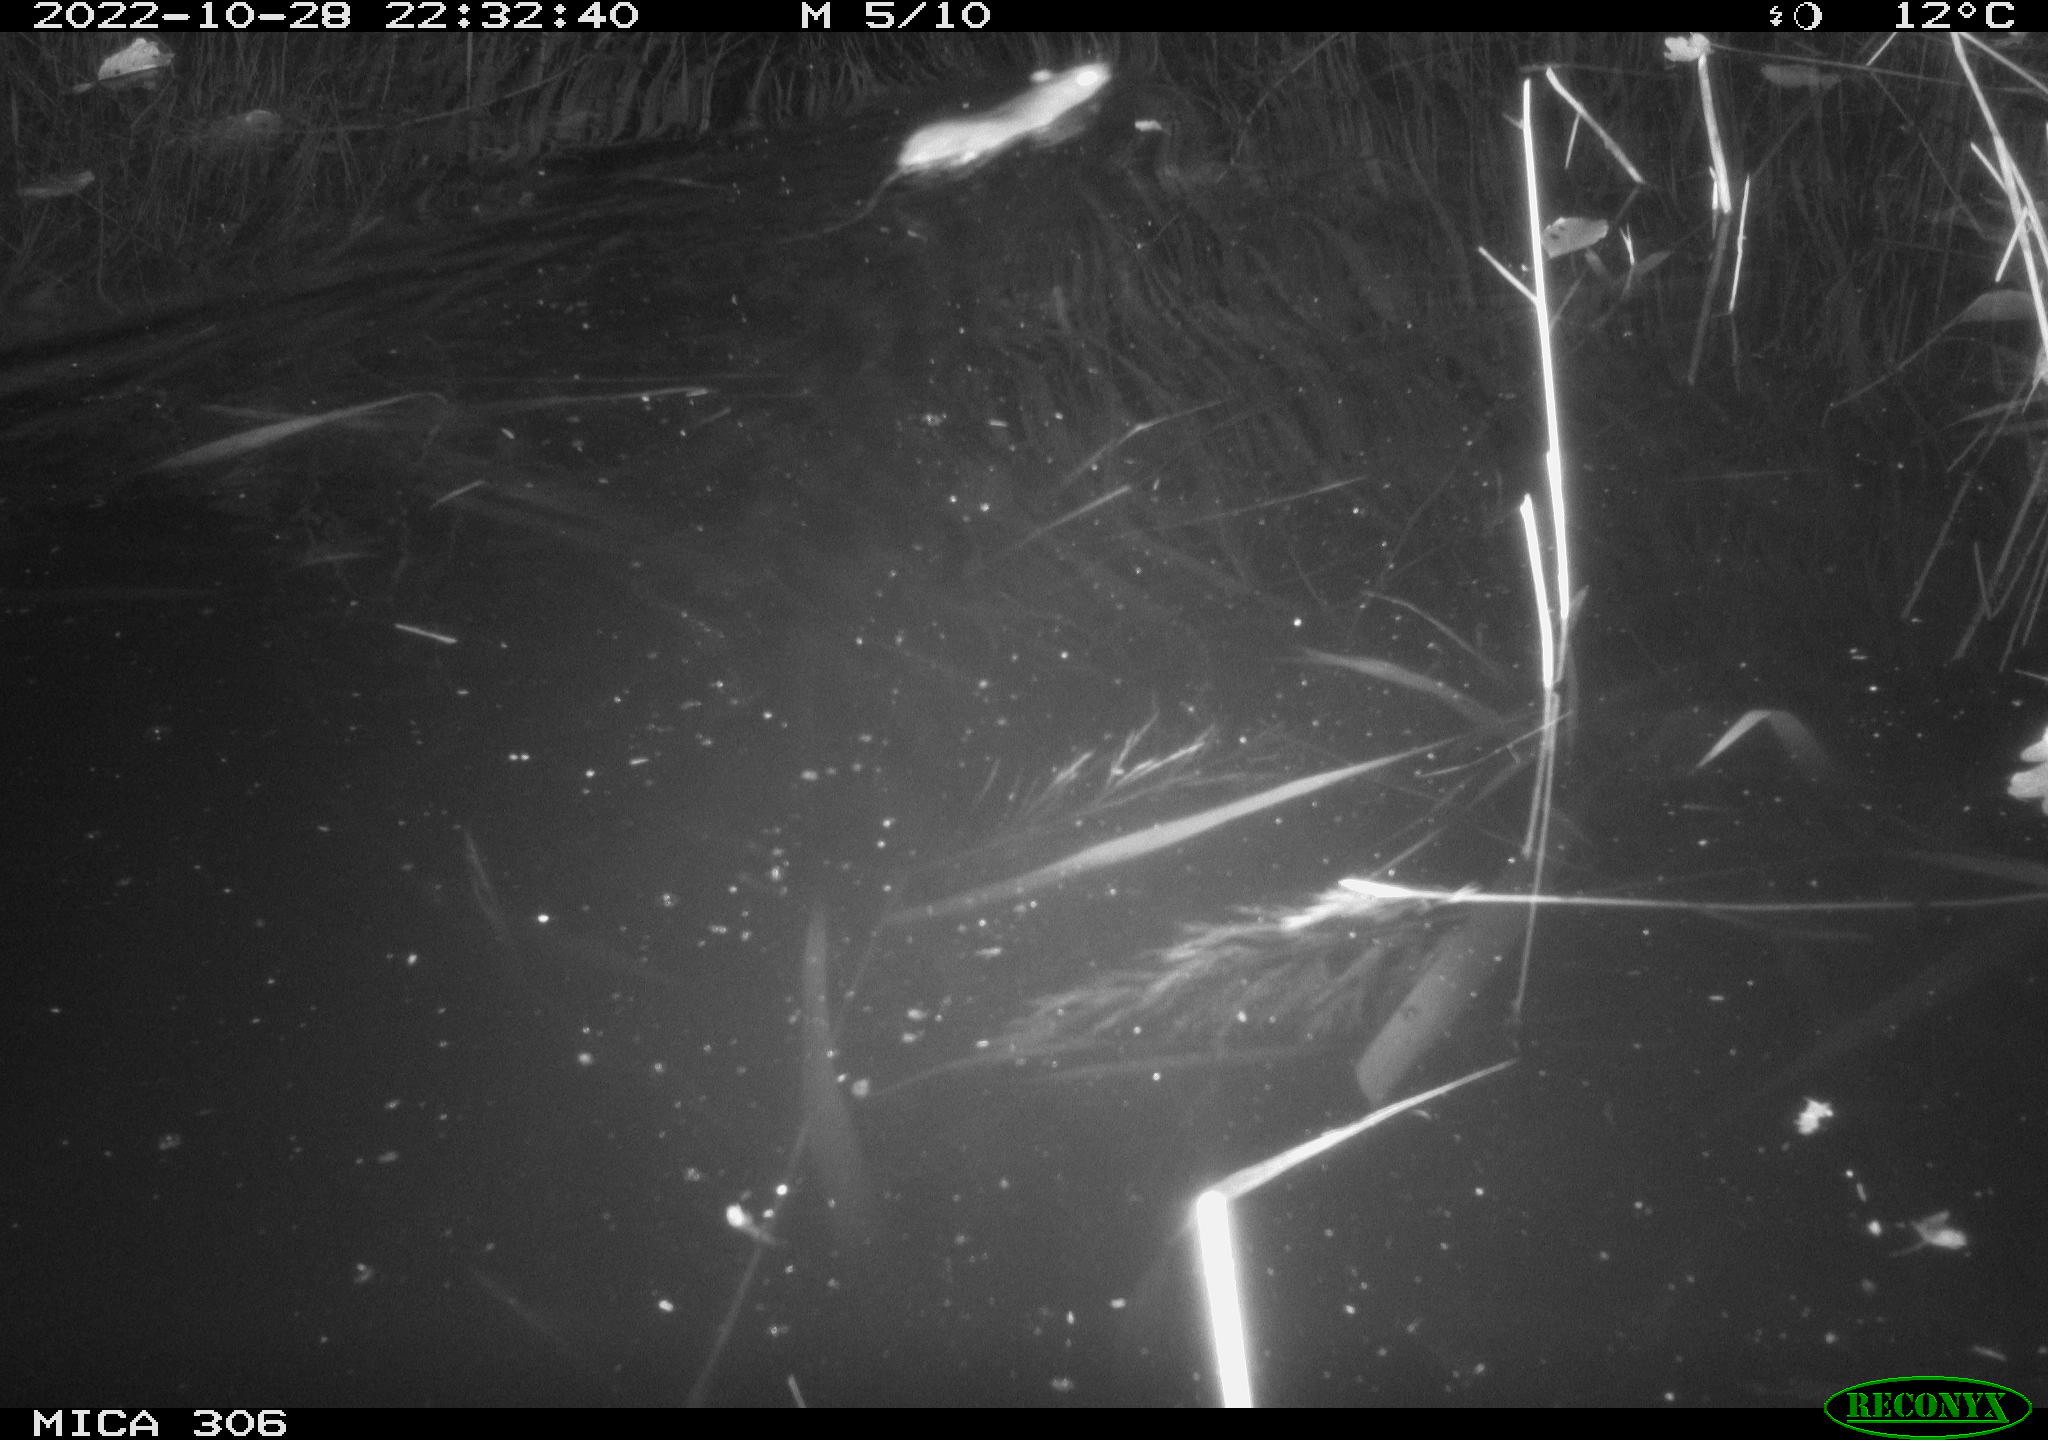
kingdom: Animalia
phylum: Chordata
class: Mammalia
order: Rodentia
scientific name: Rodentia
